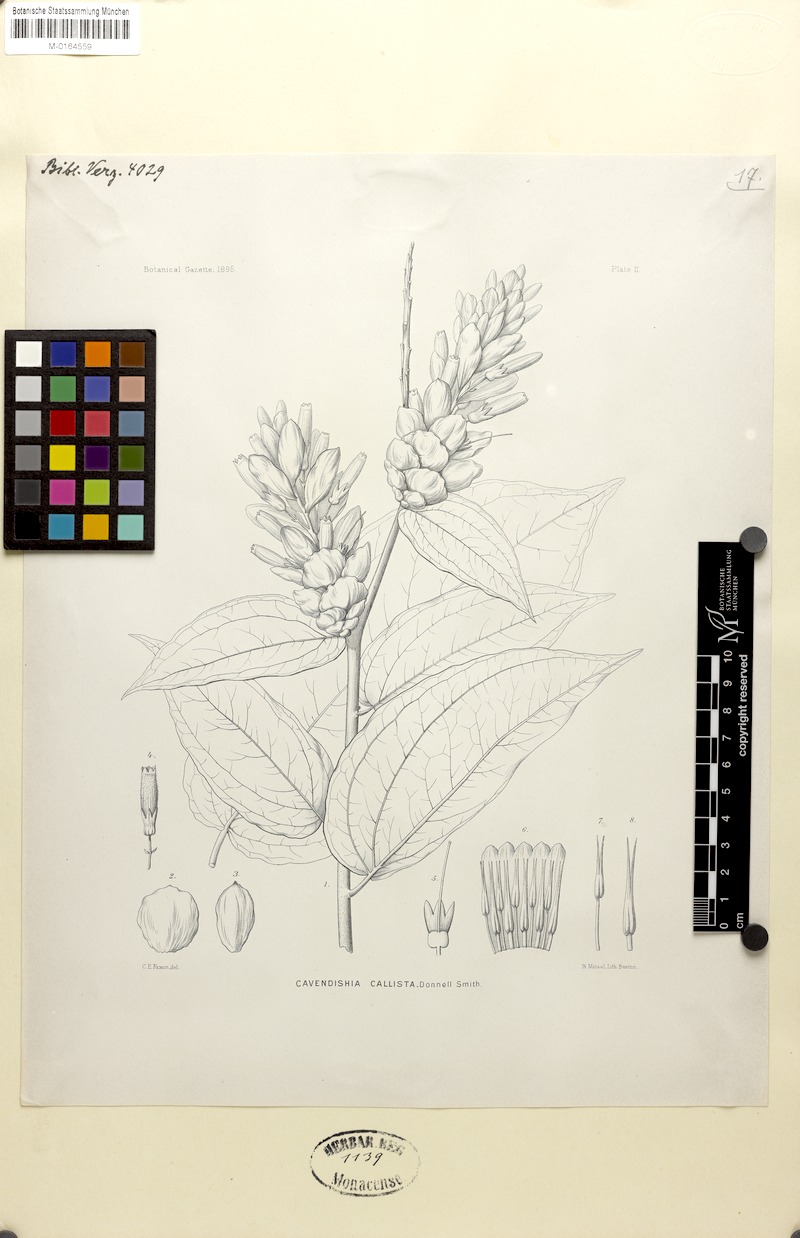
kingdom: Plantae
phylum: Tracheophyta
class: Magnoliopsida
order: Ericales
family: Ericaceae
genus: Cavendishia
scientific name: Cavendishia callista
